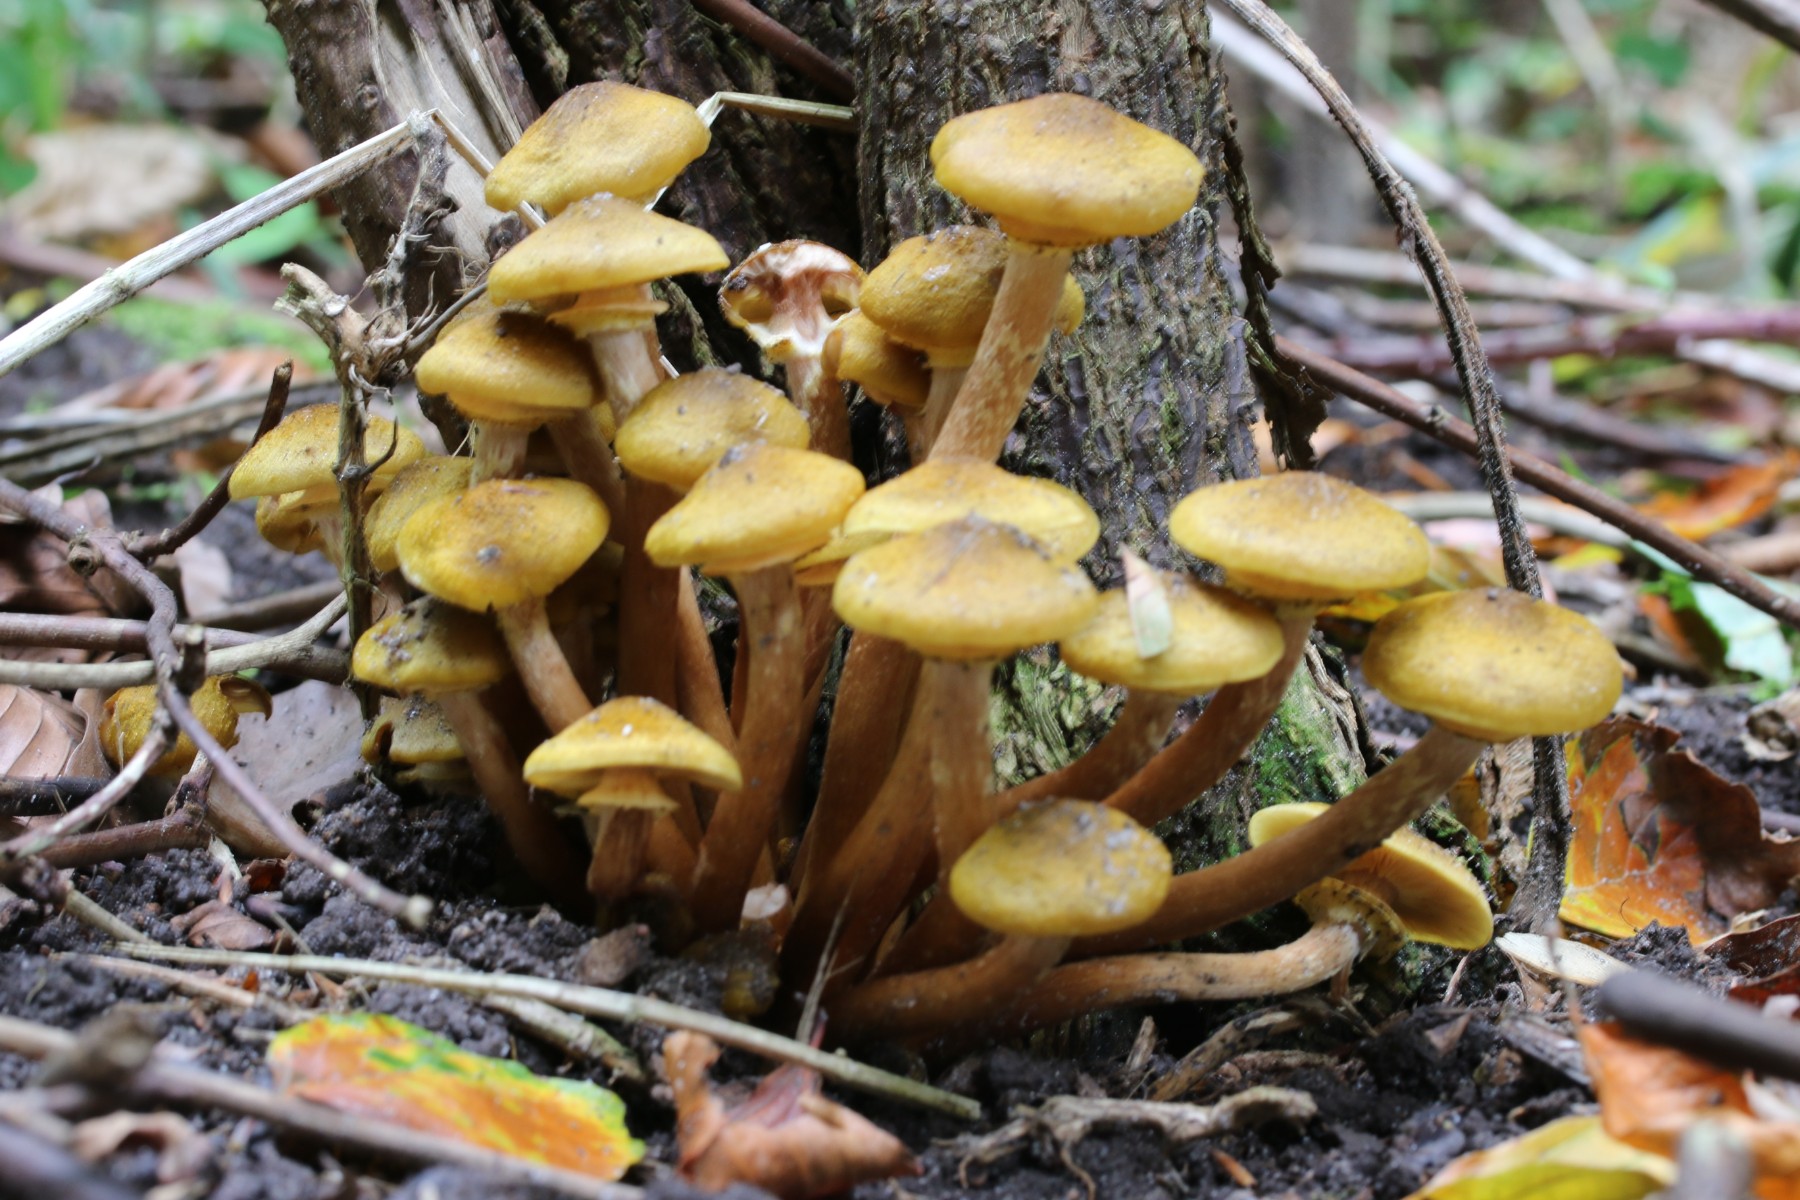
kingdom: Fungi
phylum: Basidiomycota
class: Agaricomycetes
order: Agaricales
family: Physalacriaceae
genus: Armillaria
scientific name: Armillaria mellea
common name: ægte honningsvamp
